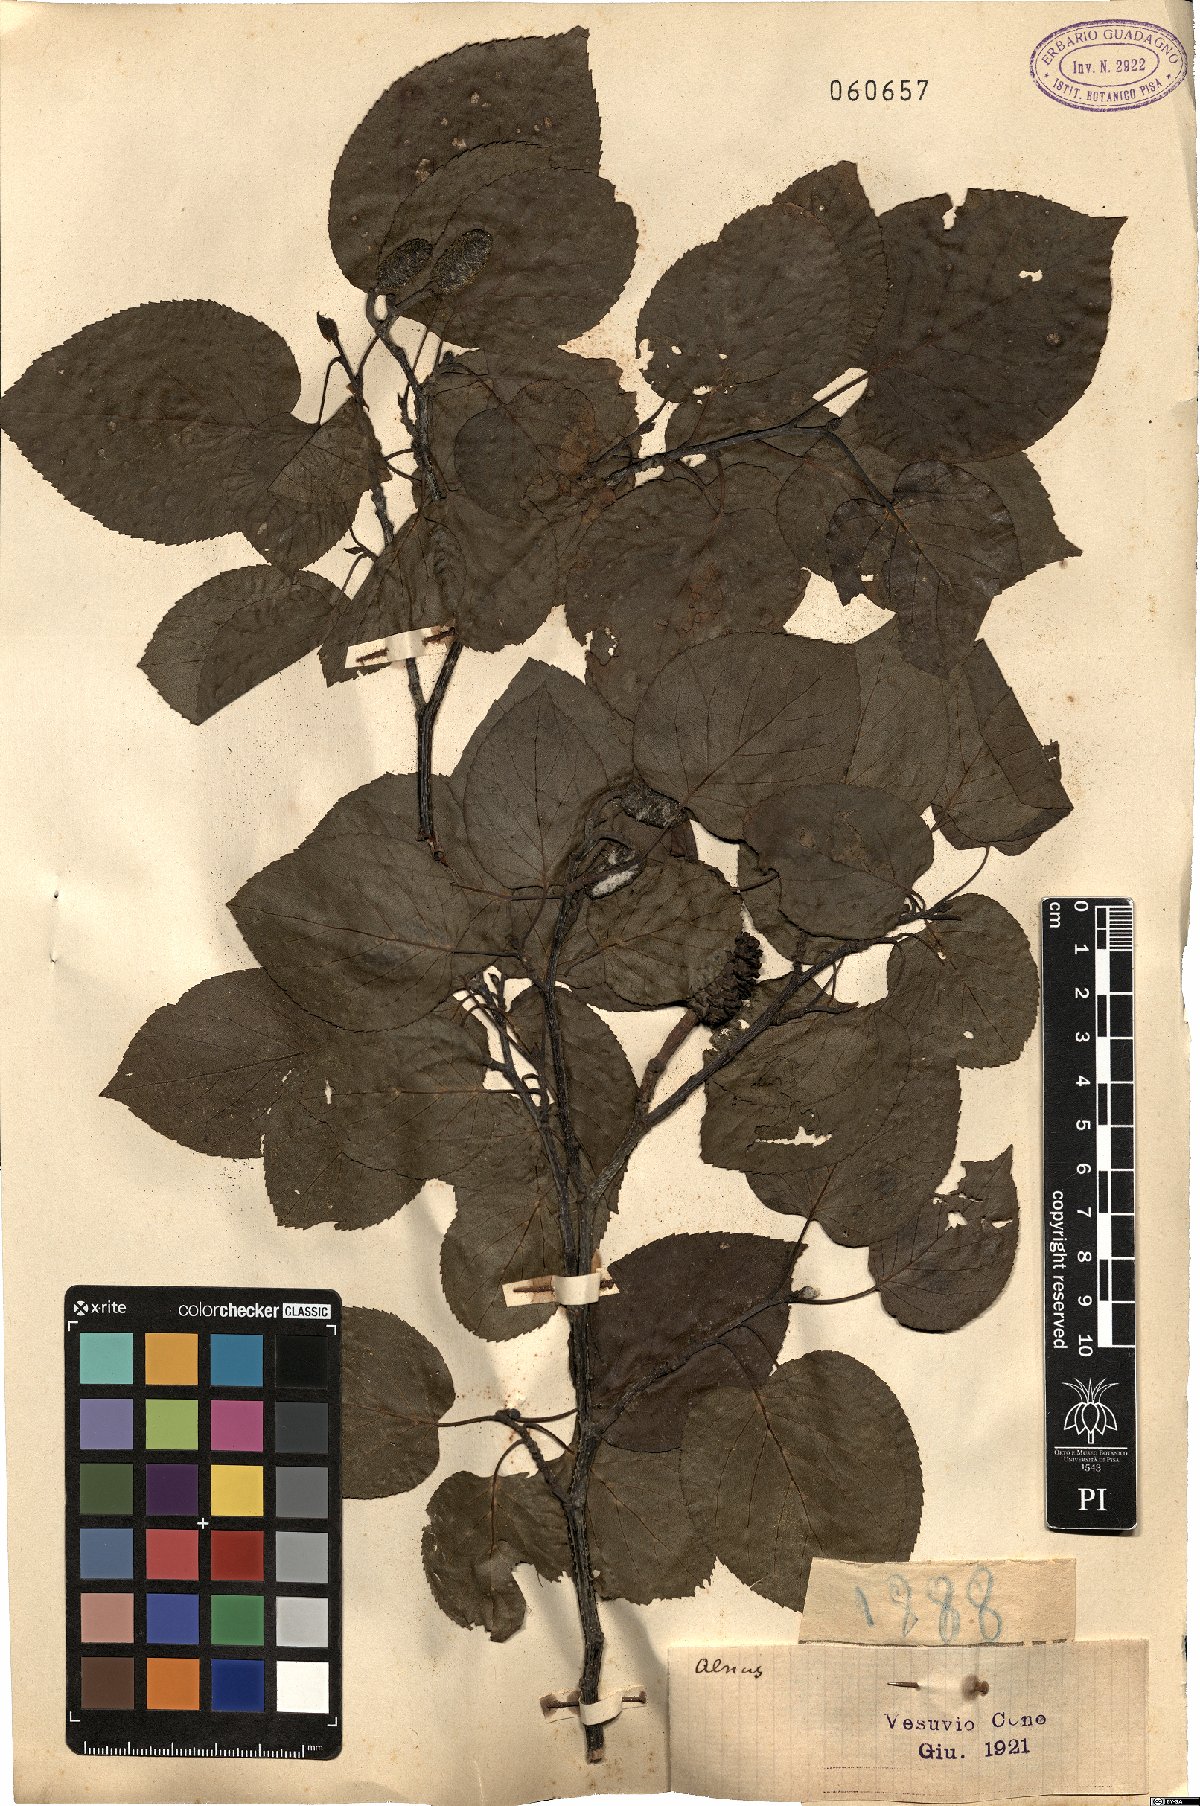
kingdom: Plantae
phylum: Tracheophyta
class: Magnoliopsida
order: Fagales
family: Betulaceae
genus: Alnus
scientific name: Alnus
